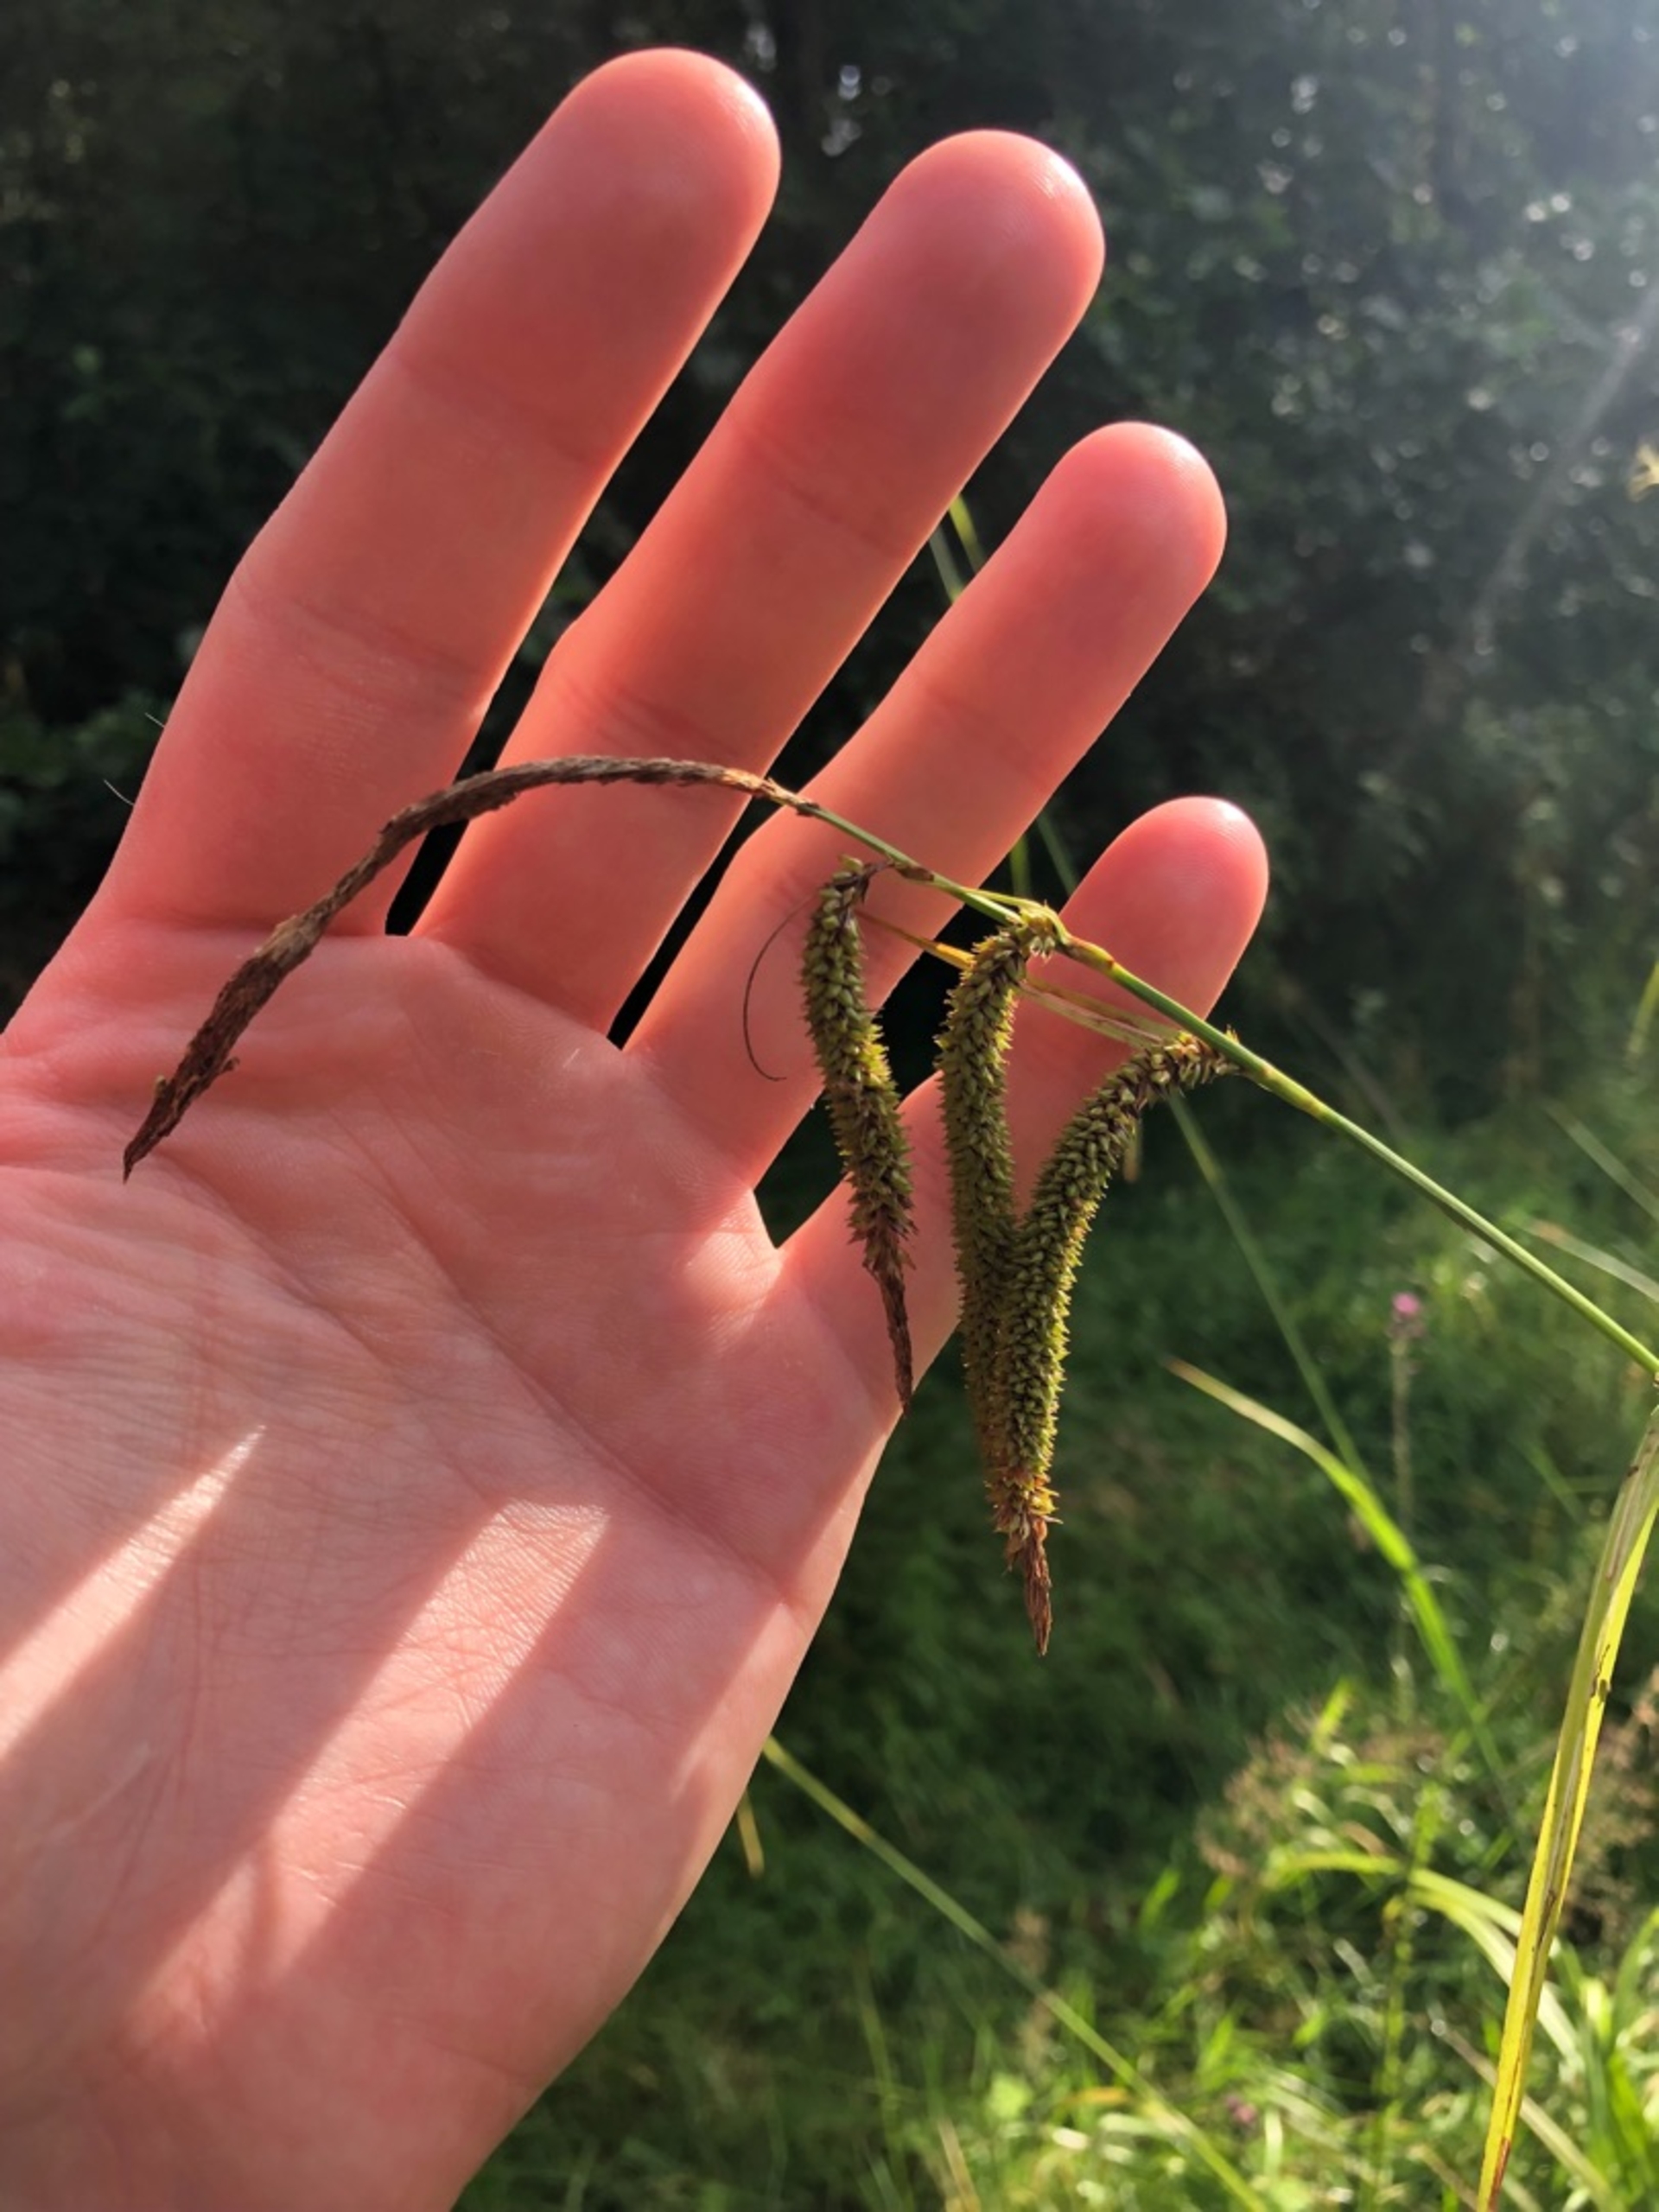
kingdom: Plantae
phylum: Tracheophyta
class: Liliopsida
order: Poales
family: Cyperaceae
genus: Carex
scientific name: Carex pendula
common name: Kæmpe-star
